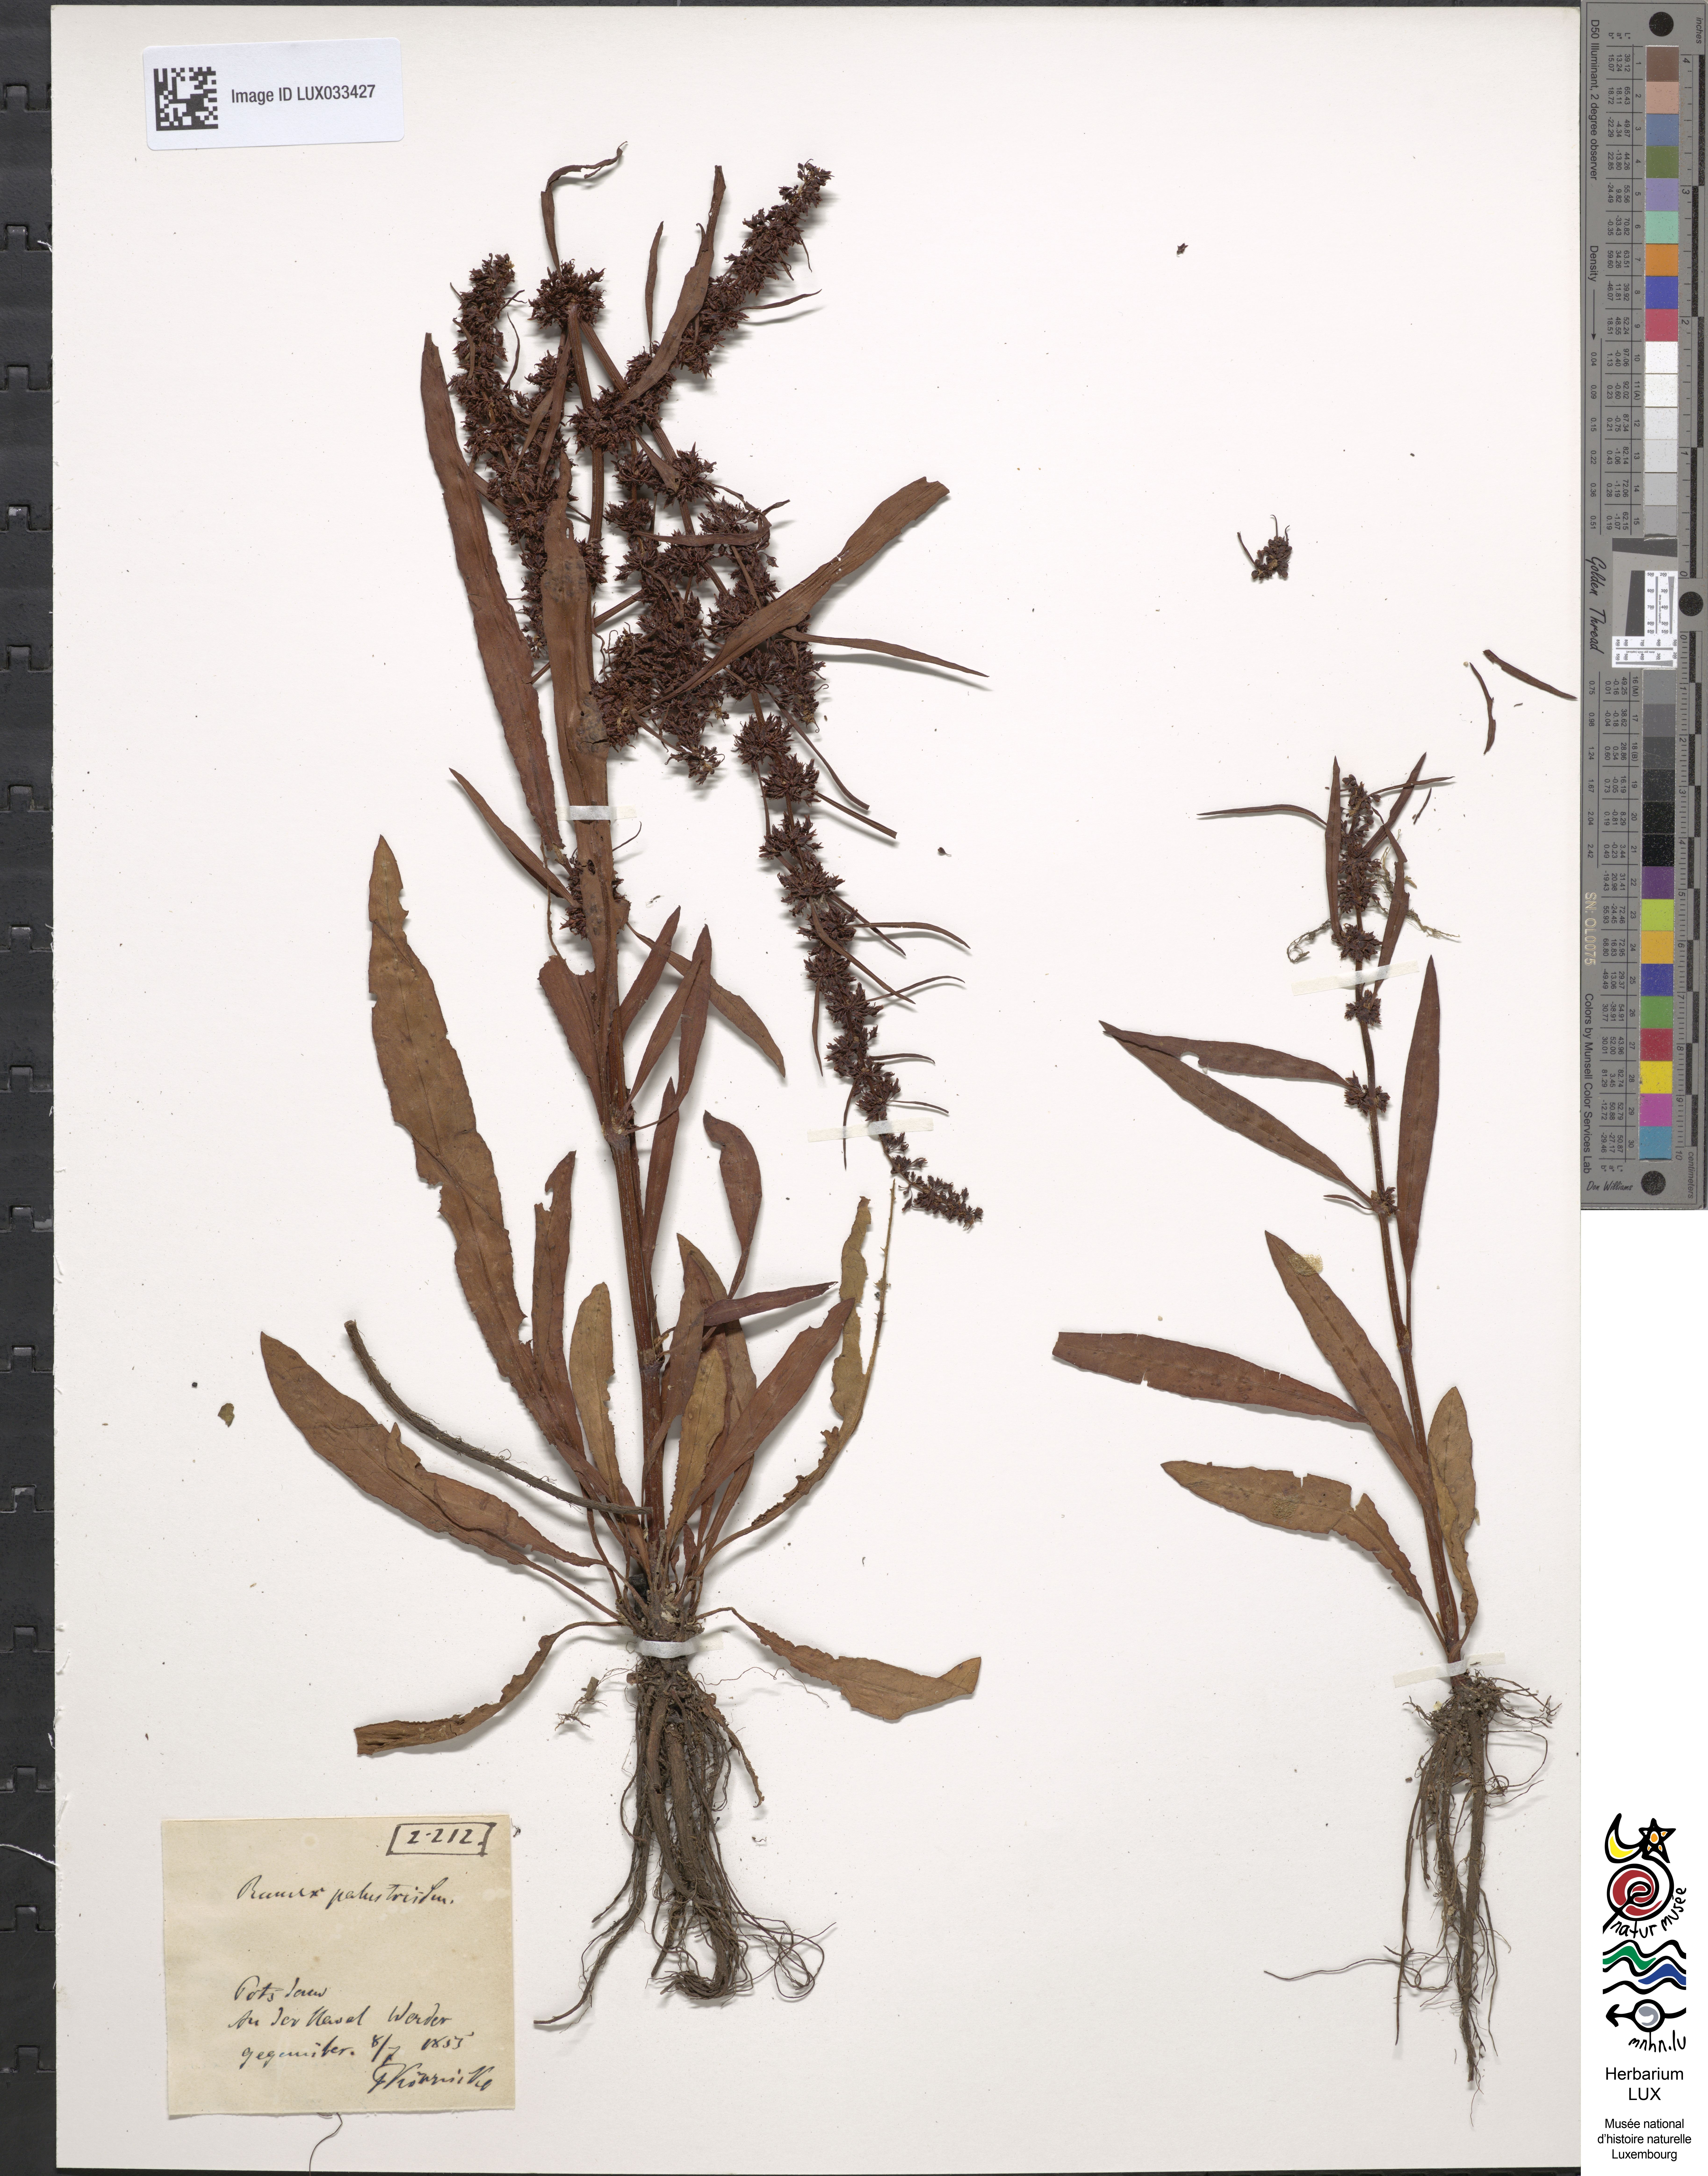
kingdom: Plantae
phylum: Tracheophyta
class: Magnoliopsida
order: Caryophyllales
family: Polygonaceae
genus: Rumex
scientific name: Rumex maritimus
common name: Golden dock
